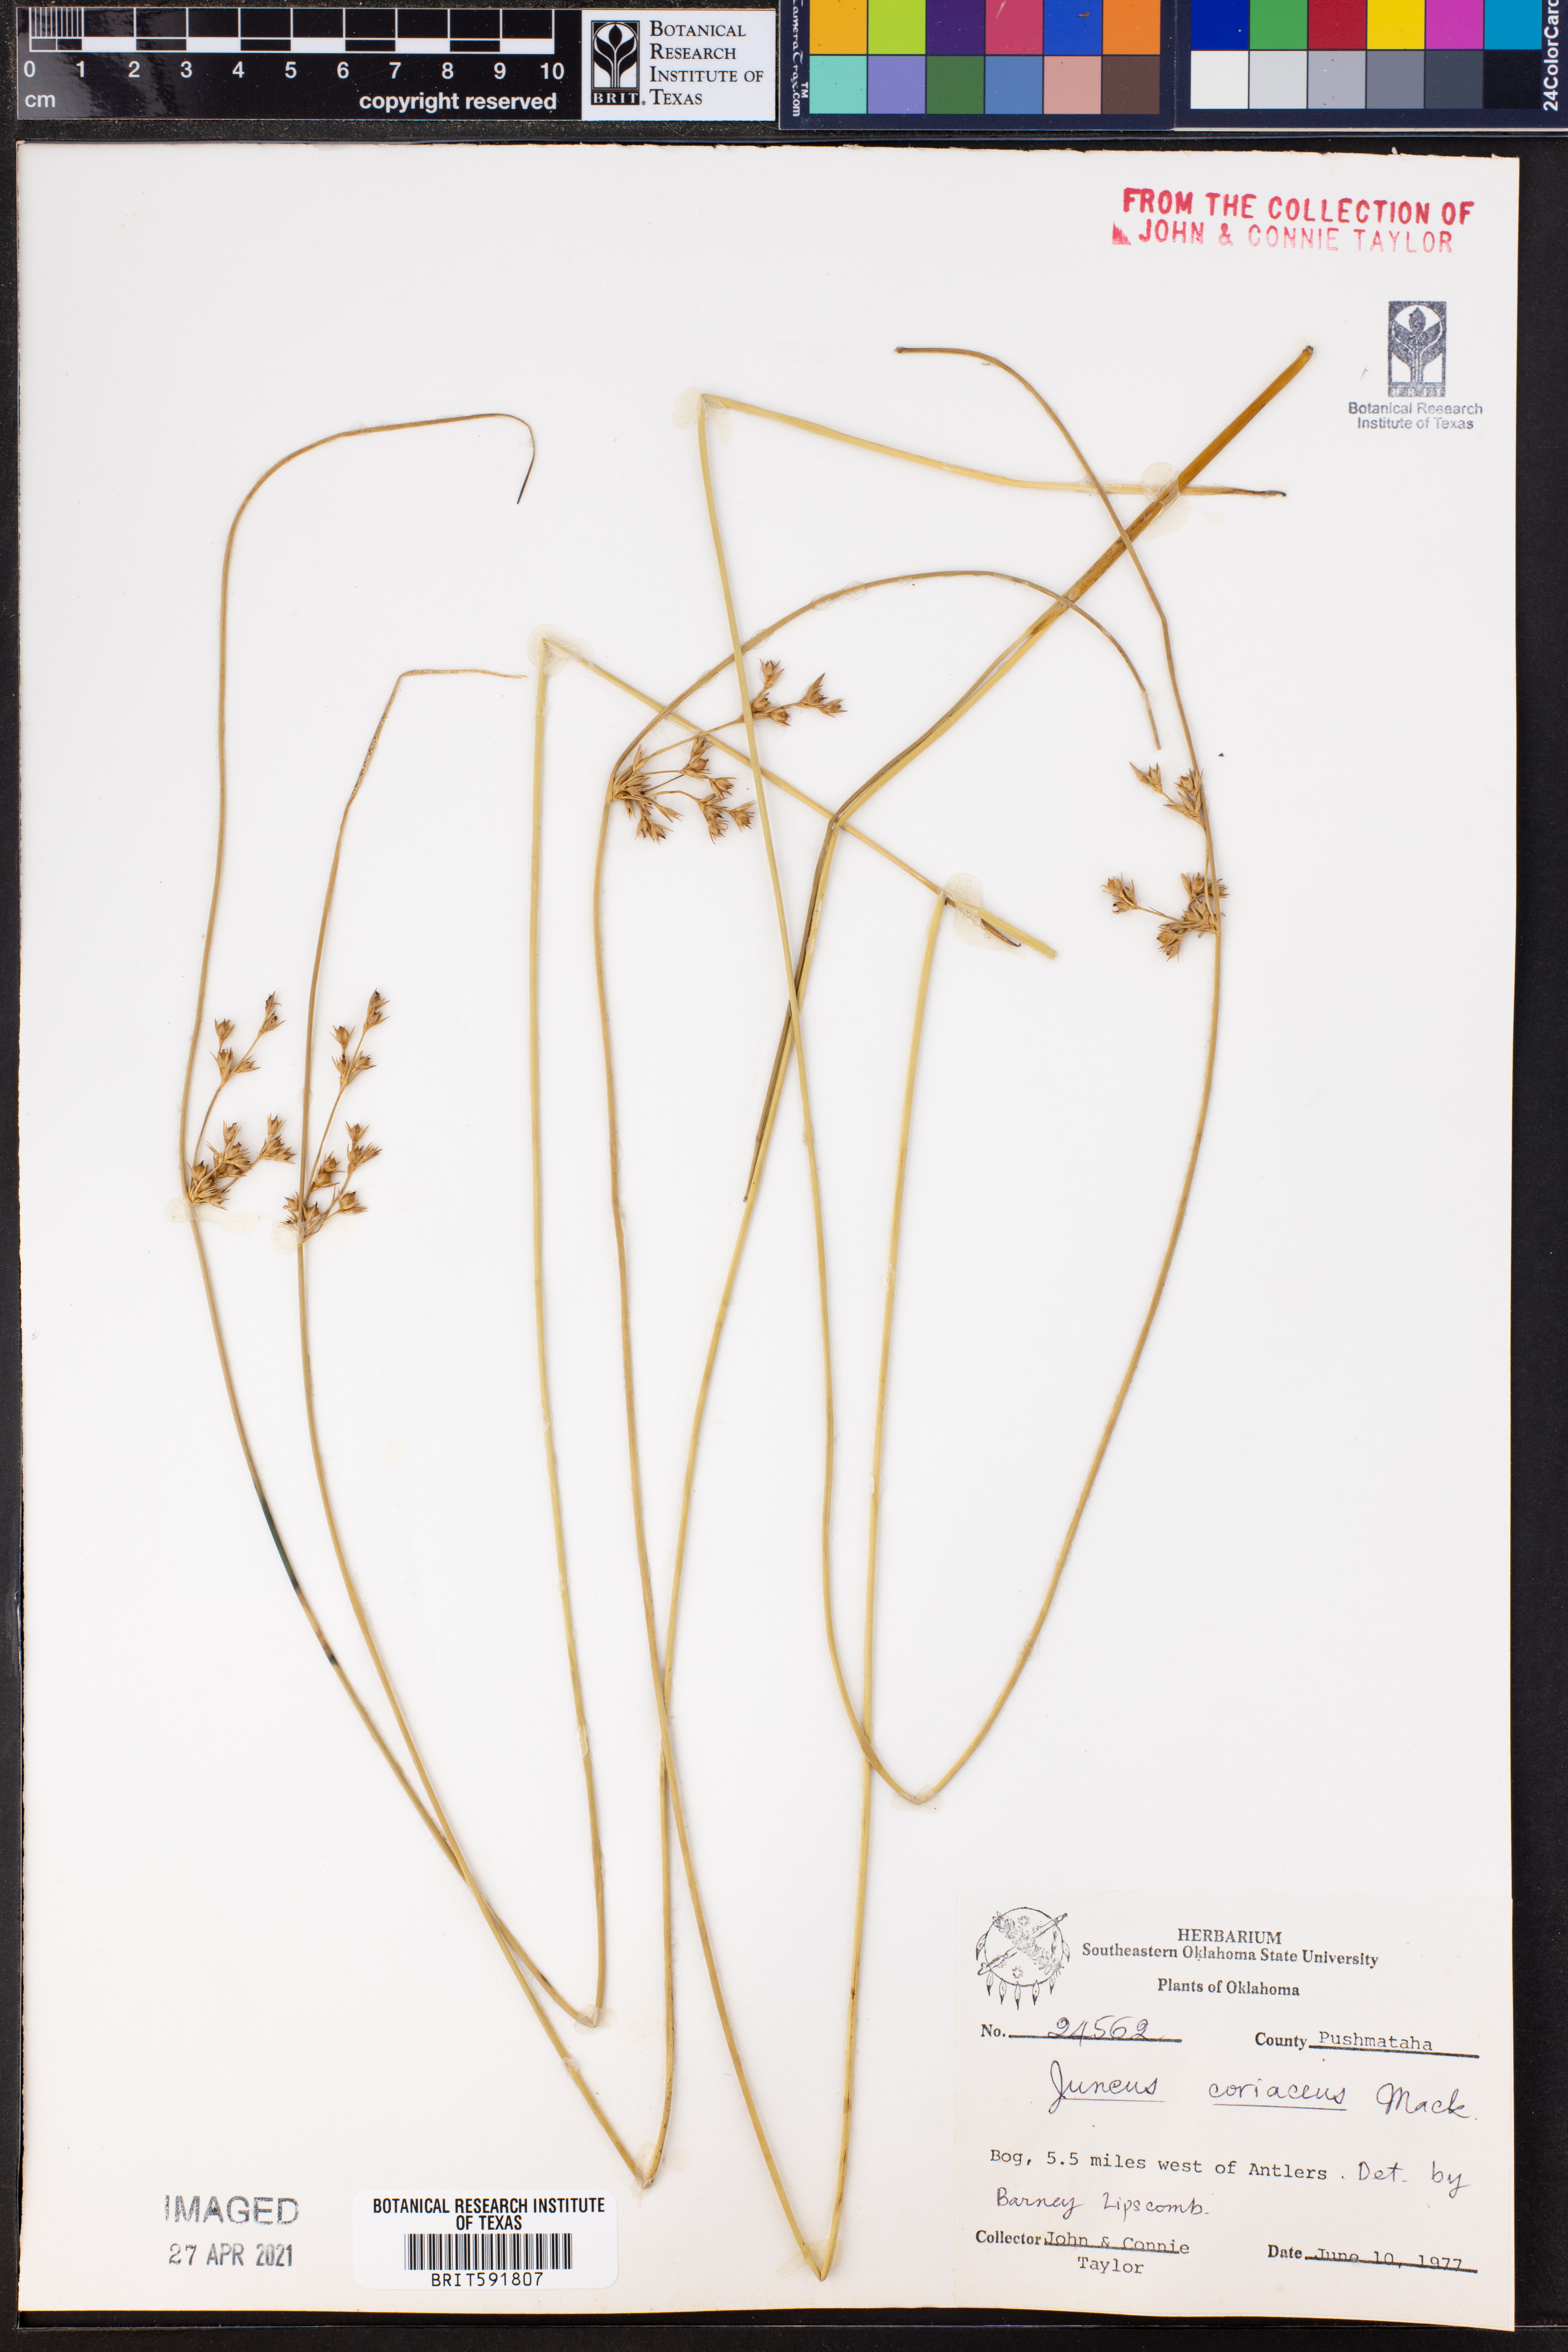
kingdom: Plantae
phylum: Tracheophyta
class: Liliopsida
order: Poales
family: Juncaceae
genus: Juncus
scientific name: Juncus coriaceus
